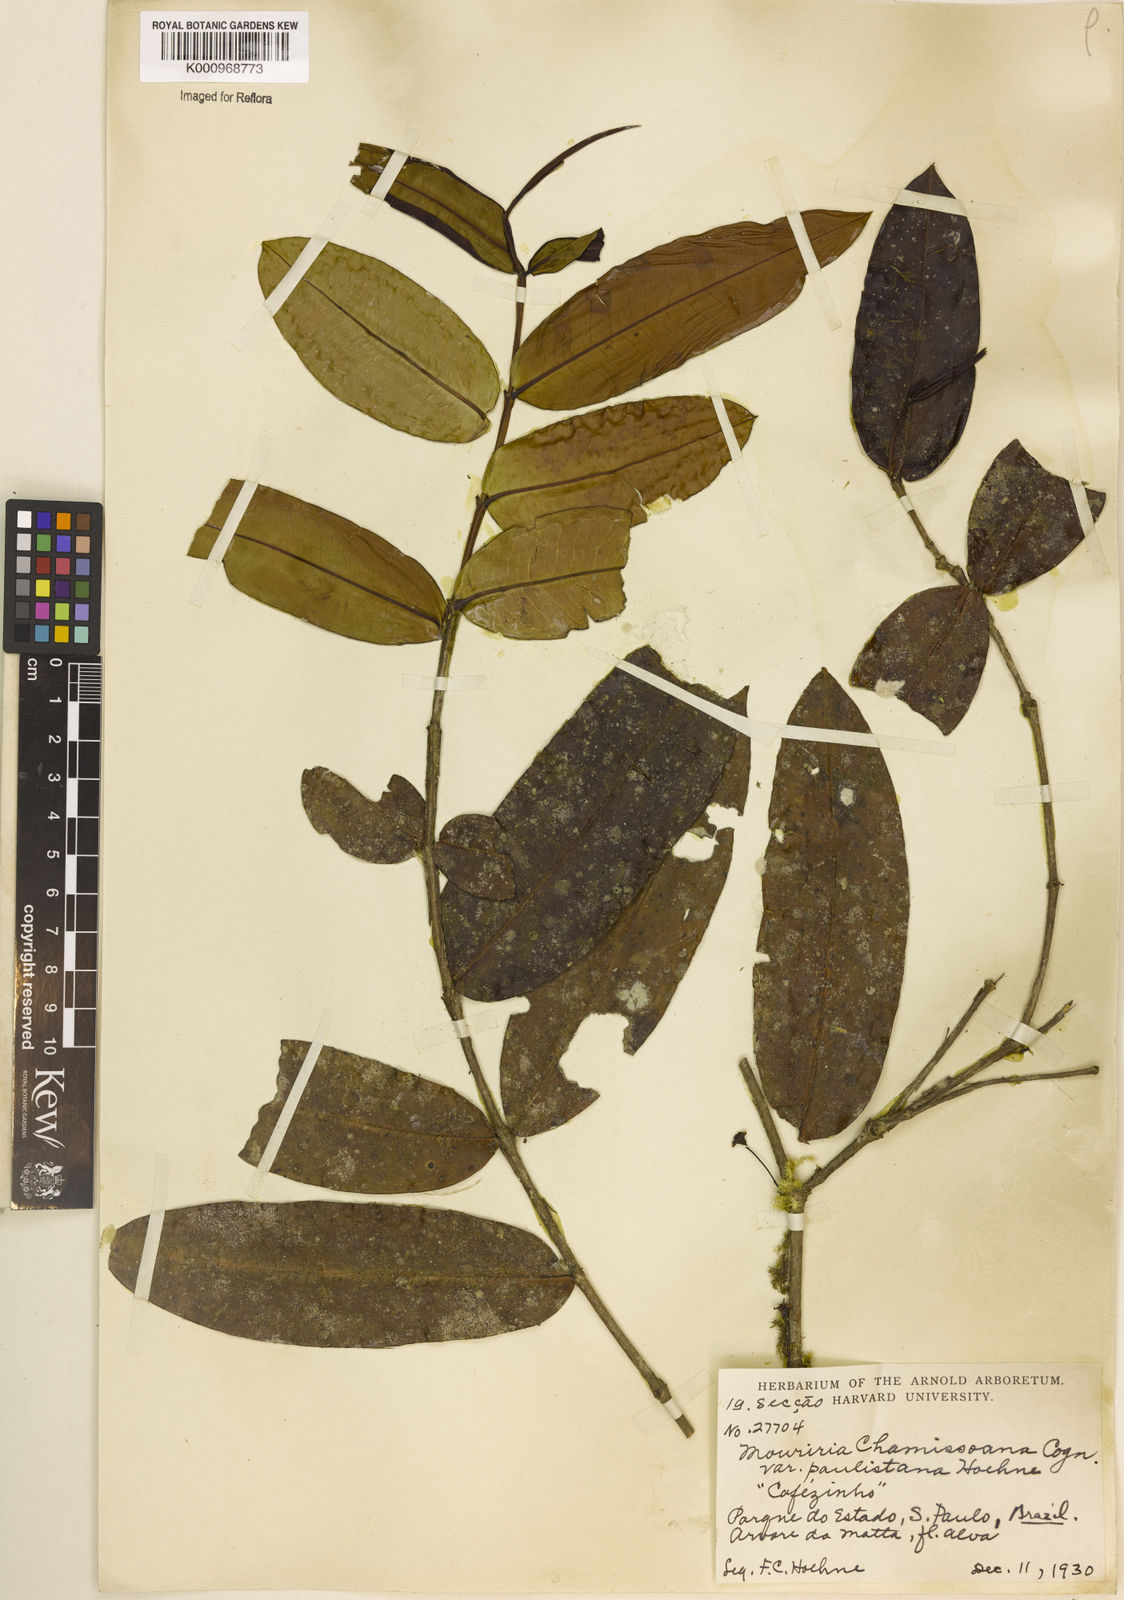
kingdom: Plantae
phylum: Tracheophyta
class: Magnoliopsida
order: Myrtales
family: Melastomataceae
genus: Mouriri
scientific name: Mouriri chamissoana
